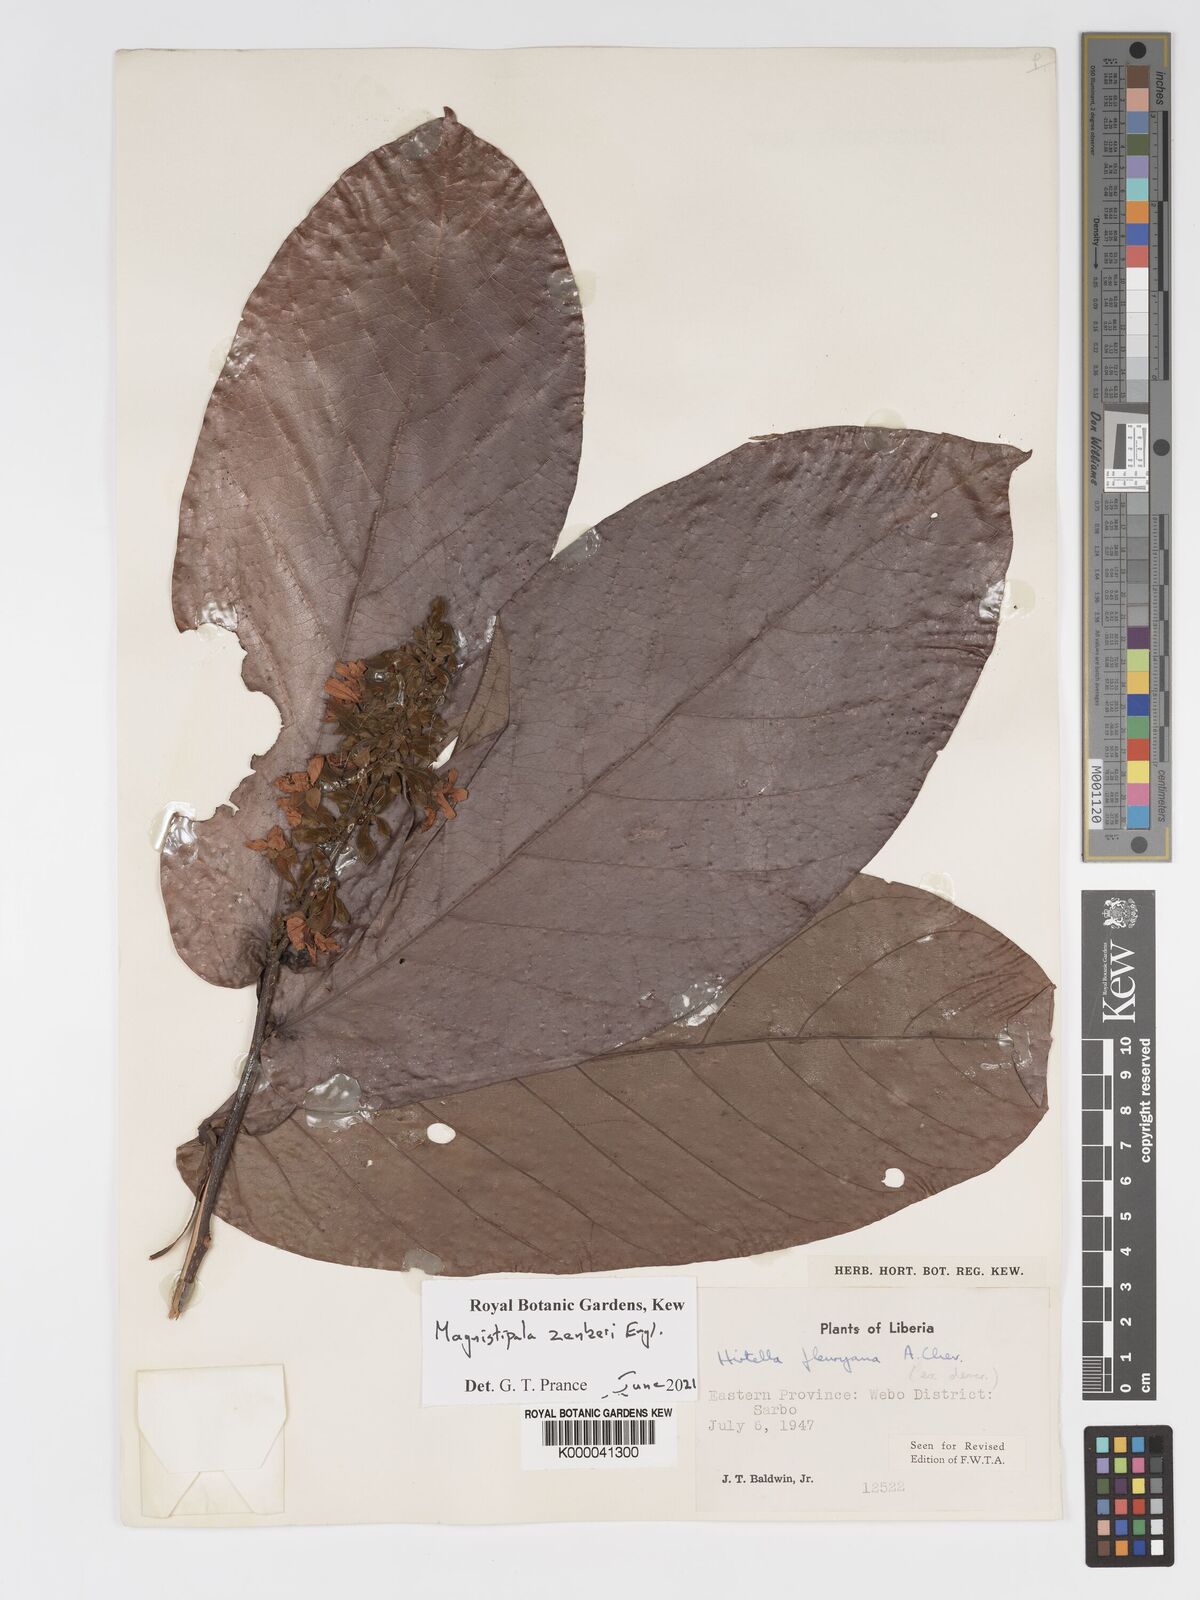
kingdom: Plantae
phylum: Tracheophyta
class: Magnoliopsida
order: Malpighiales
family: Chrysobalanaceae
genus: Magnistipula
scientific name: Magnistipula zenkeri
